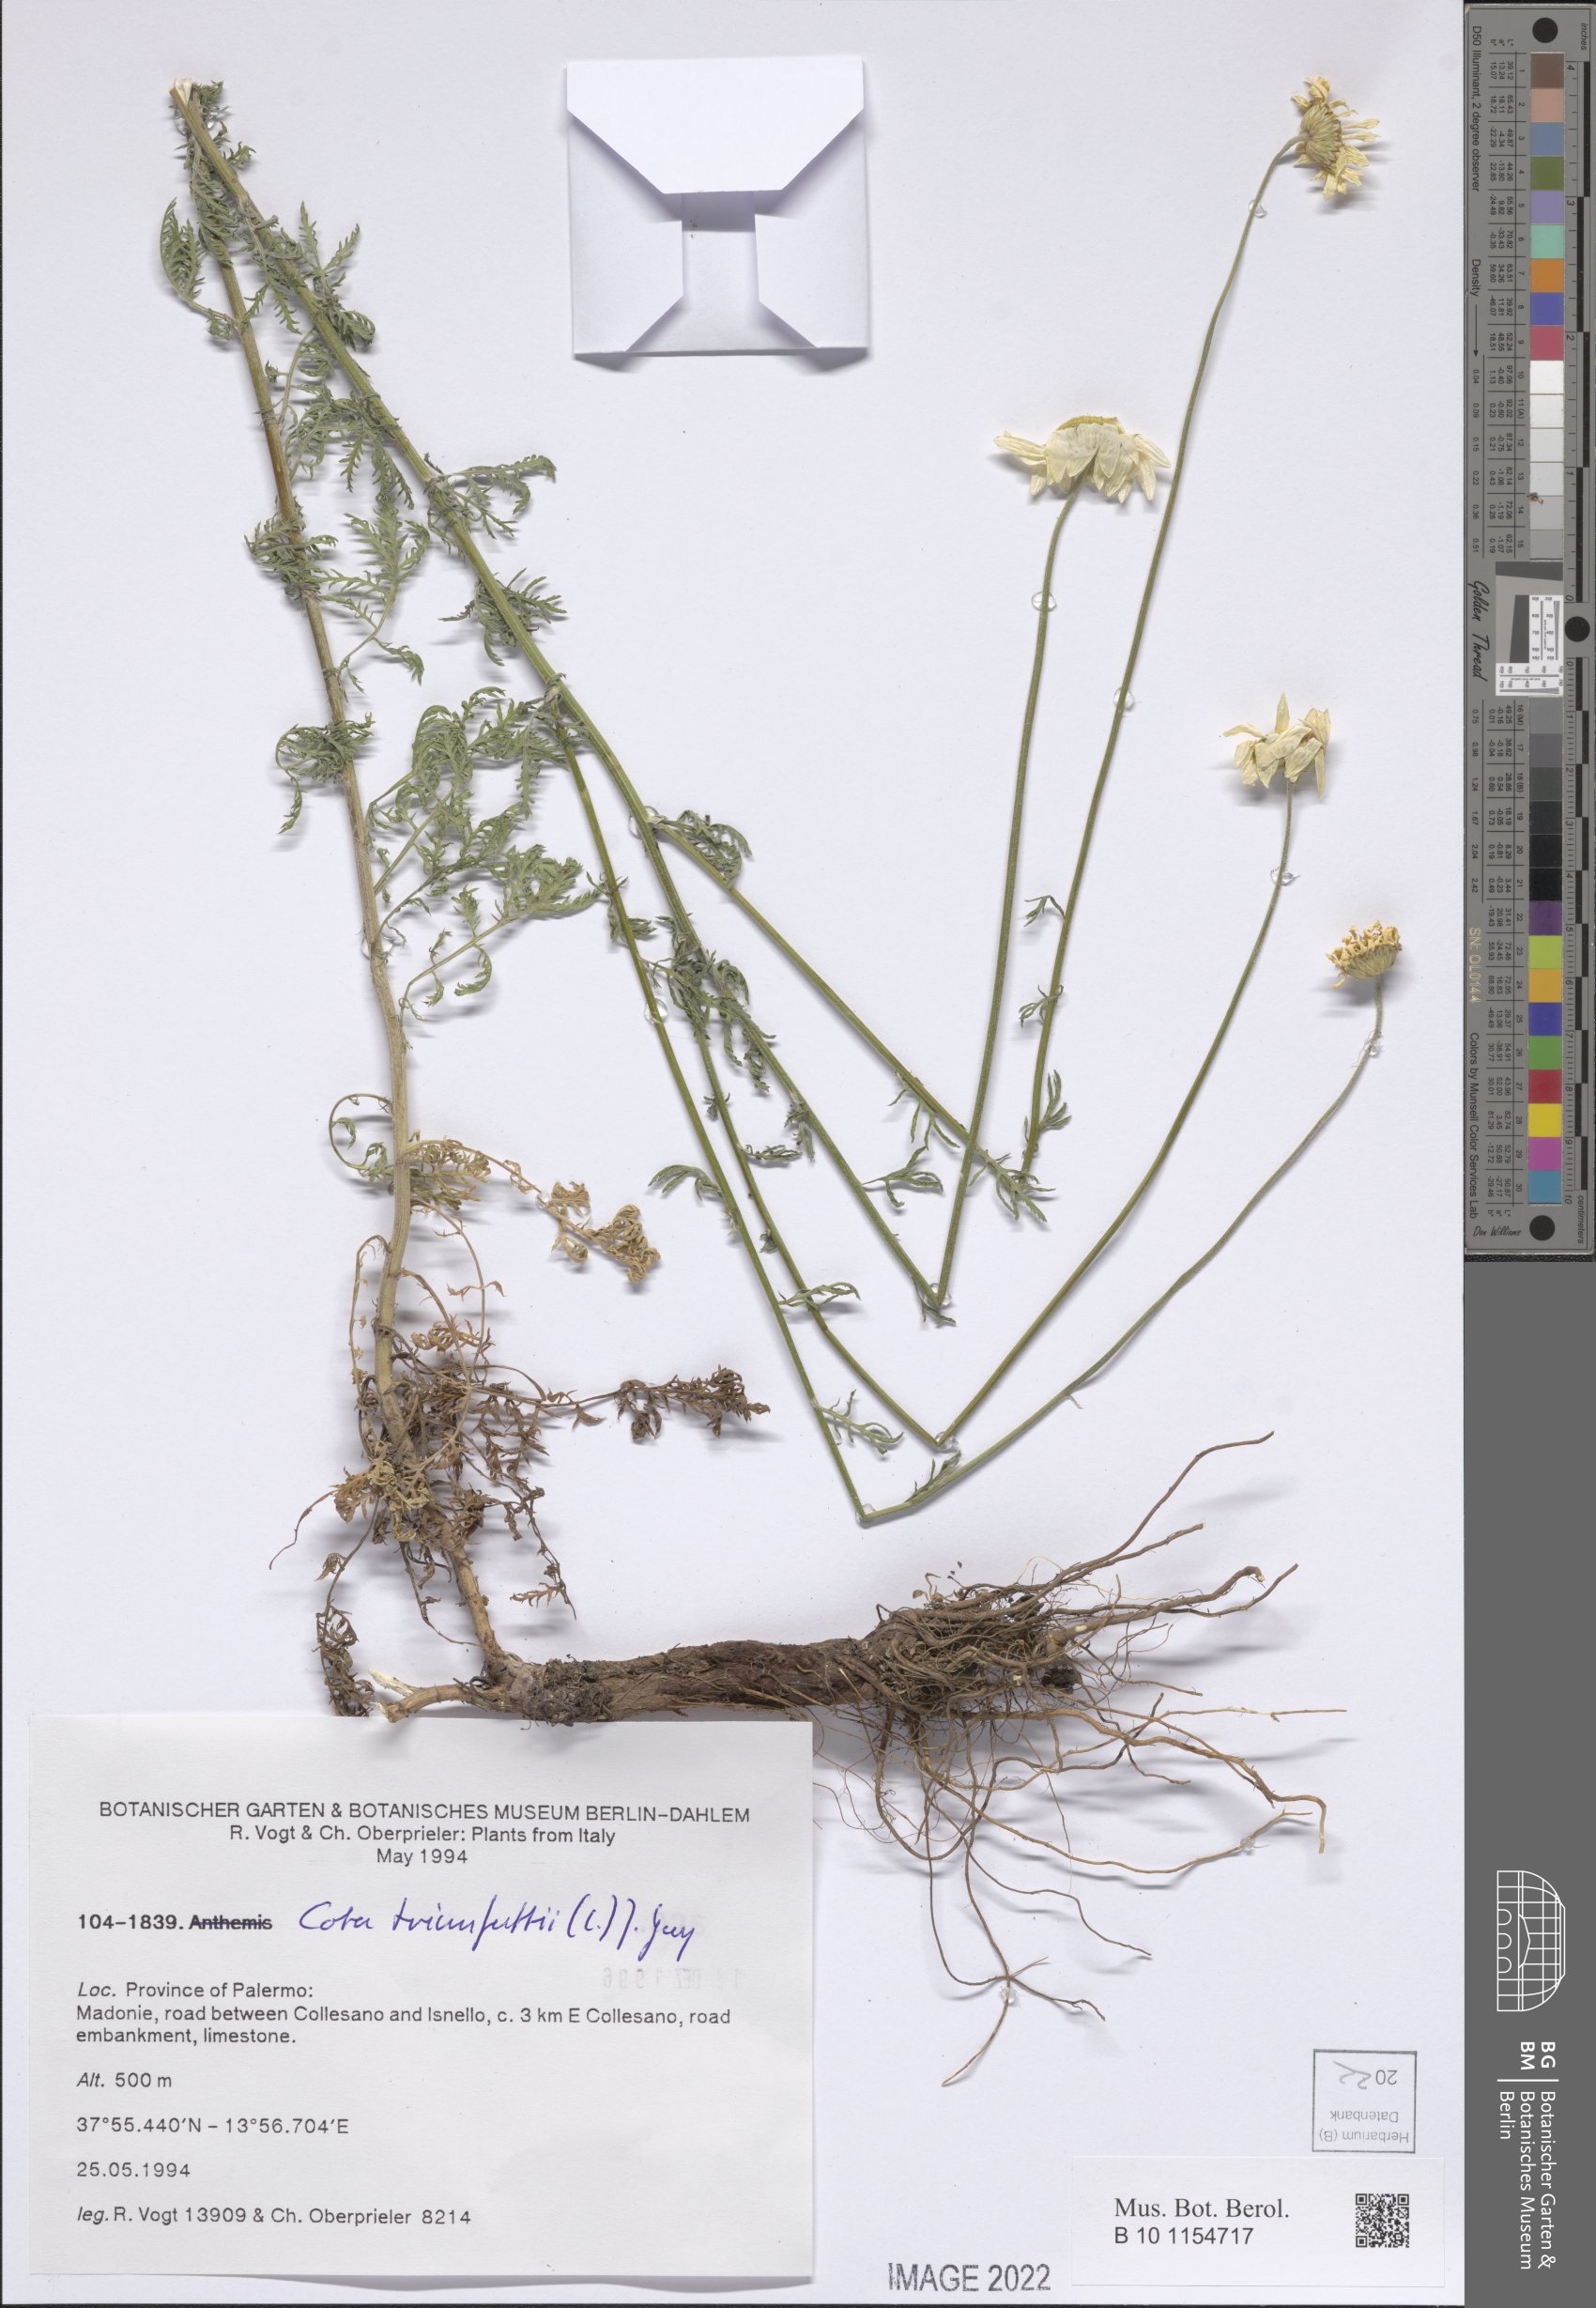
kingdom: Plantae
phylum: Tracheophyta
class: Magnoliopsida
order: Asterales
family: Asteraceae
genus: Cota
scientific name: Cota triumfetti
